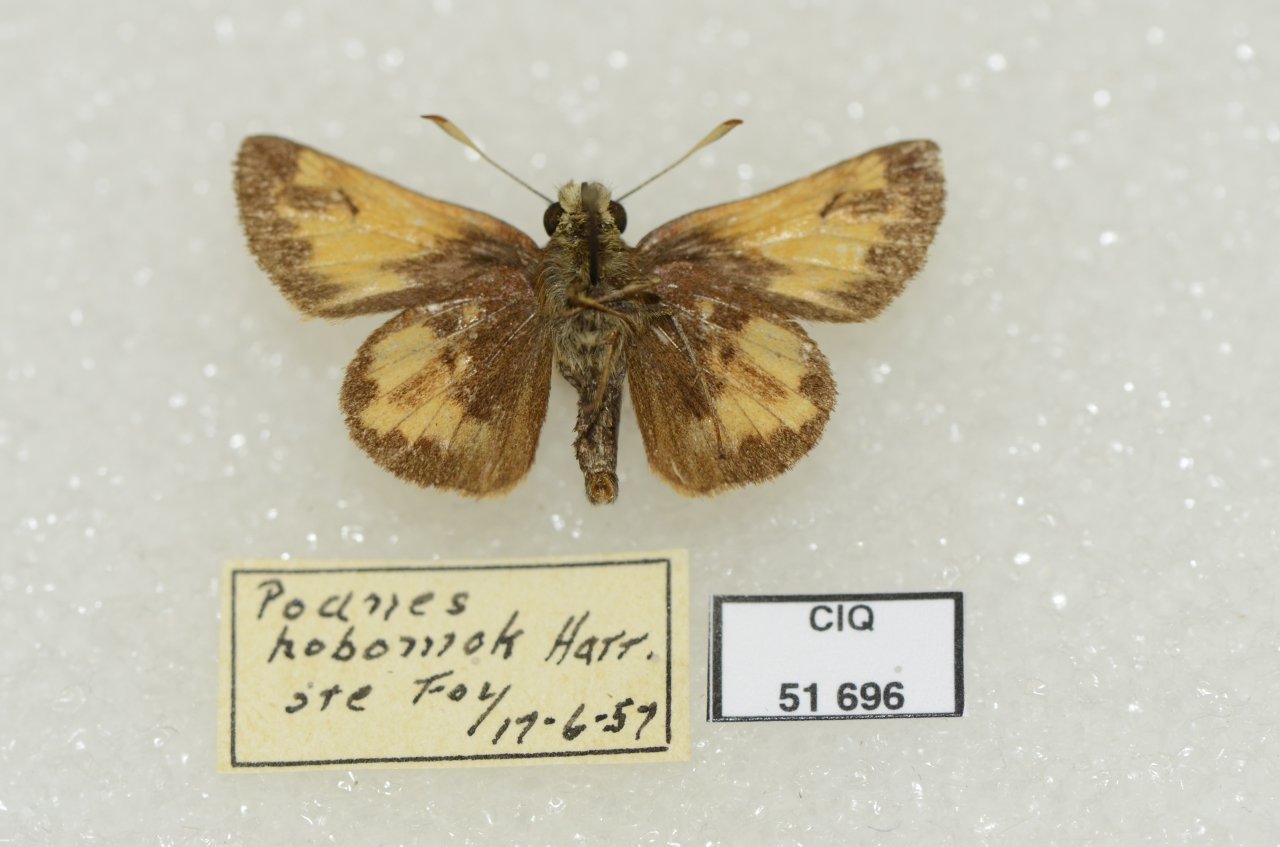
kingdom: Animalia
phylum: Arthropoda
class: Insecta
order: Lepidoptera
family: Hesperiidae
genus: Lon
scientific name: Lon hobomok
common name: Hobomok Skipper
